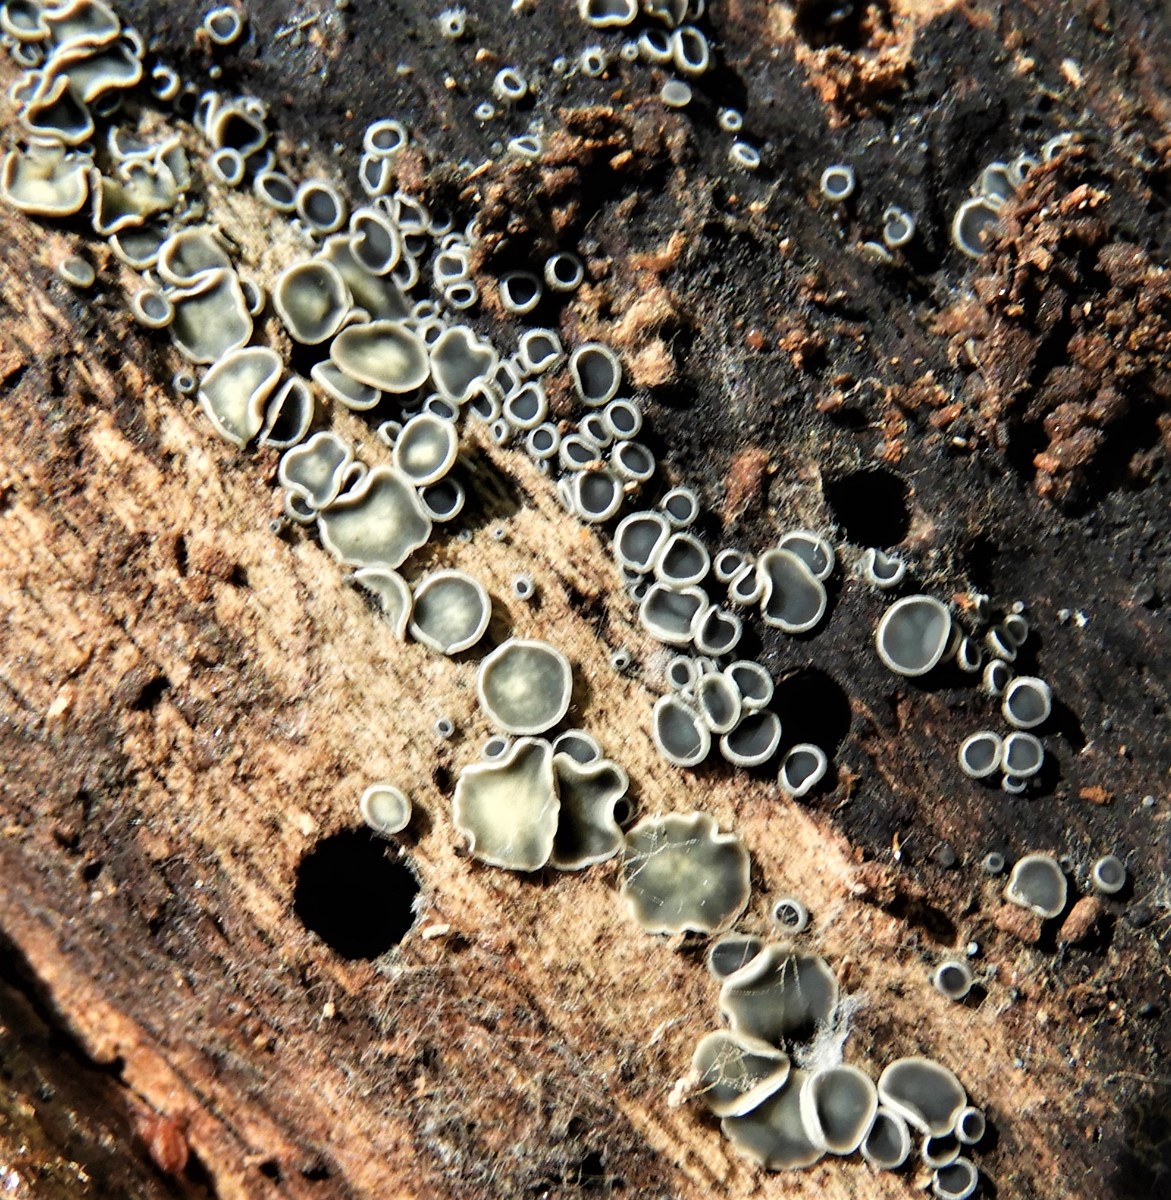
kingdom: Fungi
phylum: Ascomycota
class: Leotiomycetes
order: Helotiales
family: Mollisiaceae
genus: Mollisia
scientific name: Mollisia
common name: gråskive
